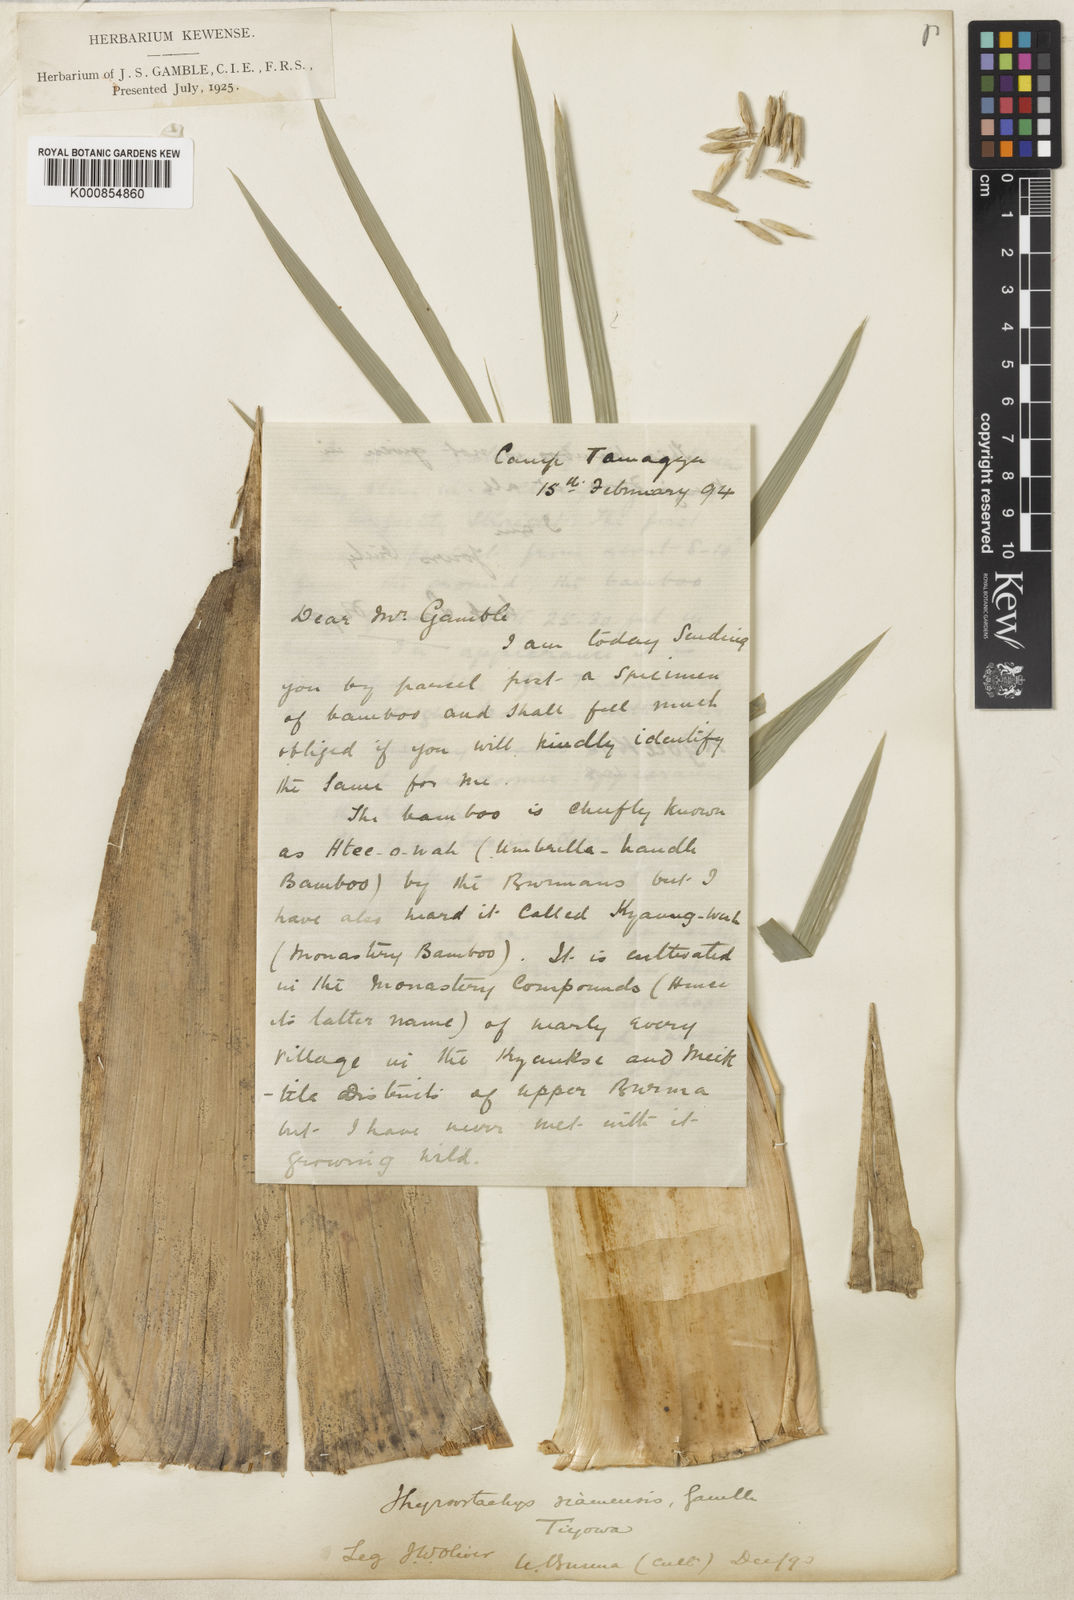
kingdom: Plantae
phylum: Tracheophyta
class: Liliopsida
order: Poales
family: Poaceae
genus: Thyrsostachys
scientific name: Thyrsostachys siamensis
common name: Thailand bamboo
